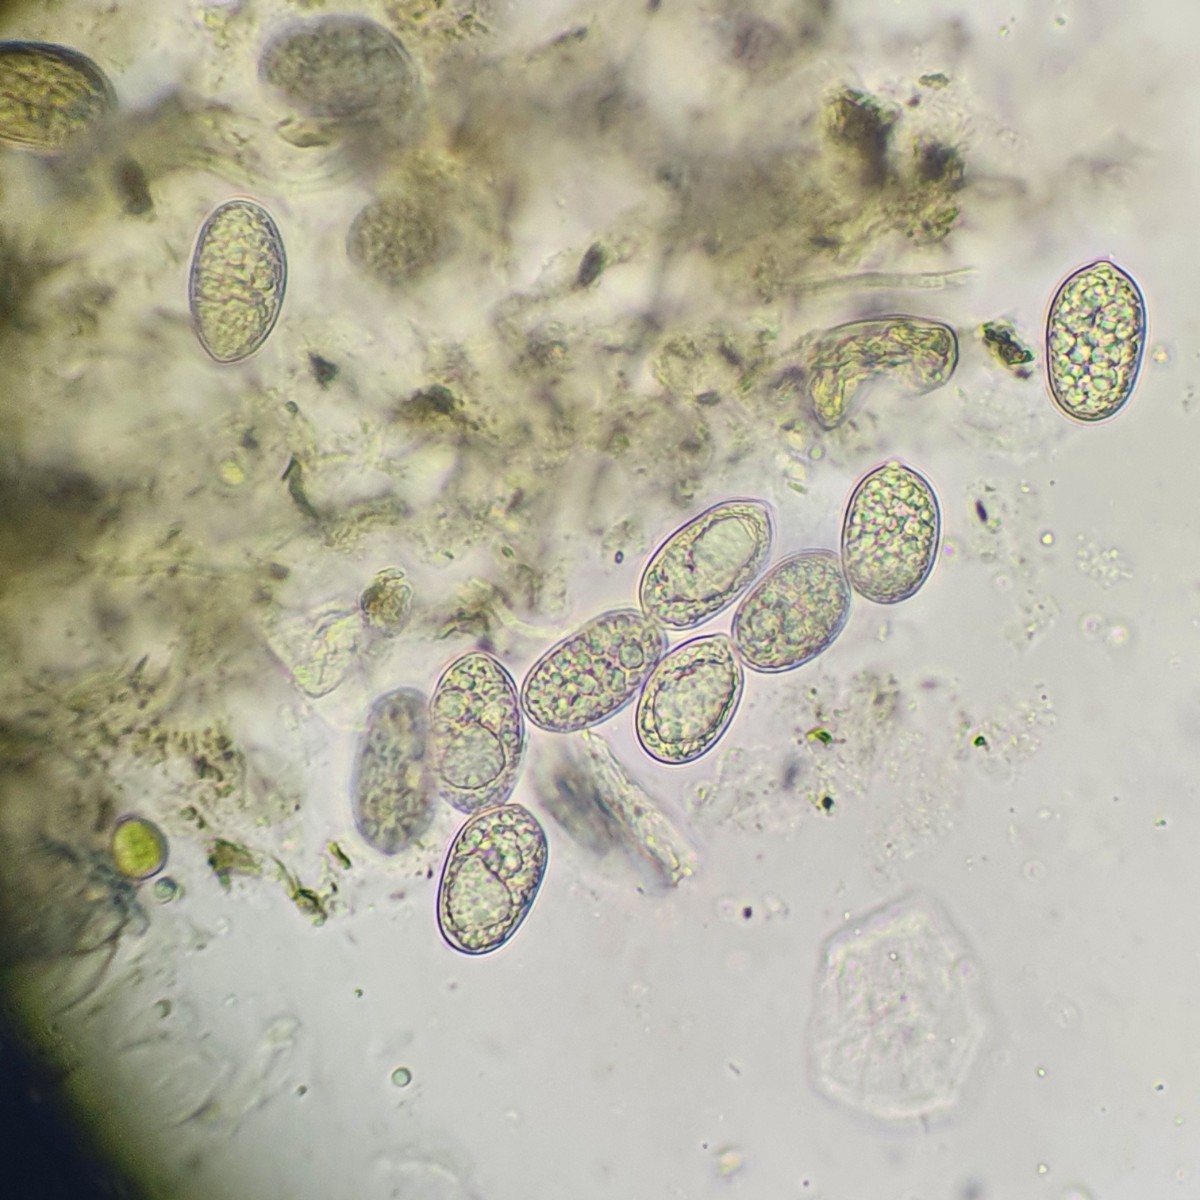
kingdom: Fungi
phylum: Ascomycota
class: Dothideomycetes
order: Botryosphaeriales
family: Botryosphaeriaceae
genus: Diplodia
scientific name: Diplodia crataegi
